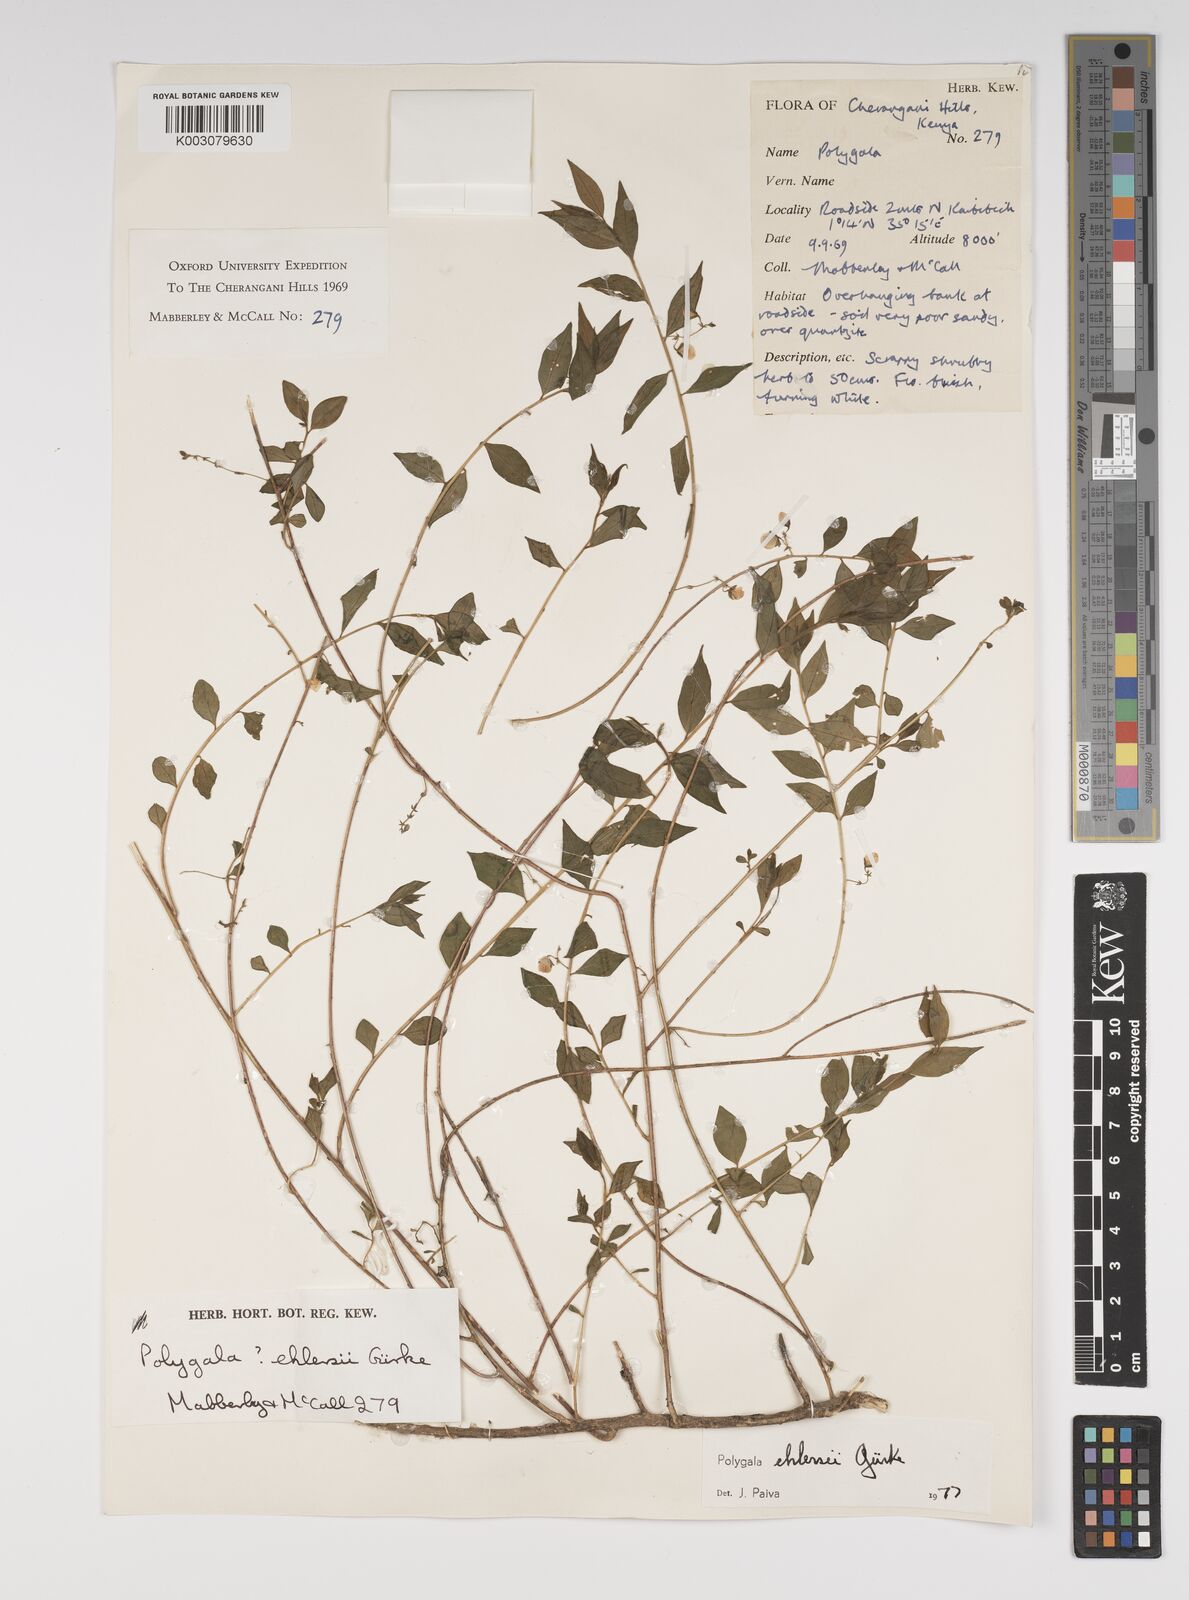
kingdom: Plantae
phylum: Tracheophyta
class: Magnoliopsida
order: Fabales
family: Polygalaceae
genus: Polygala
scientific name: Polygala ehlersii
